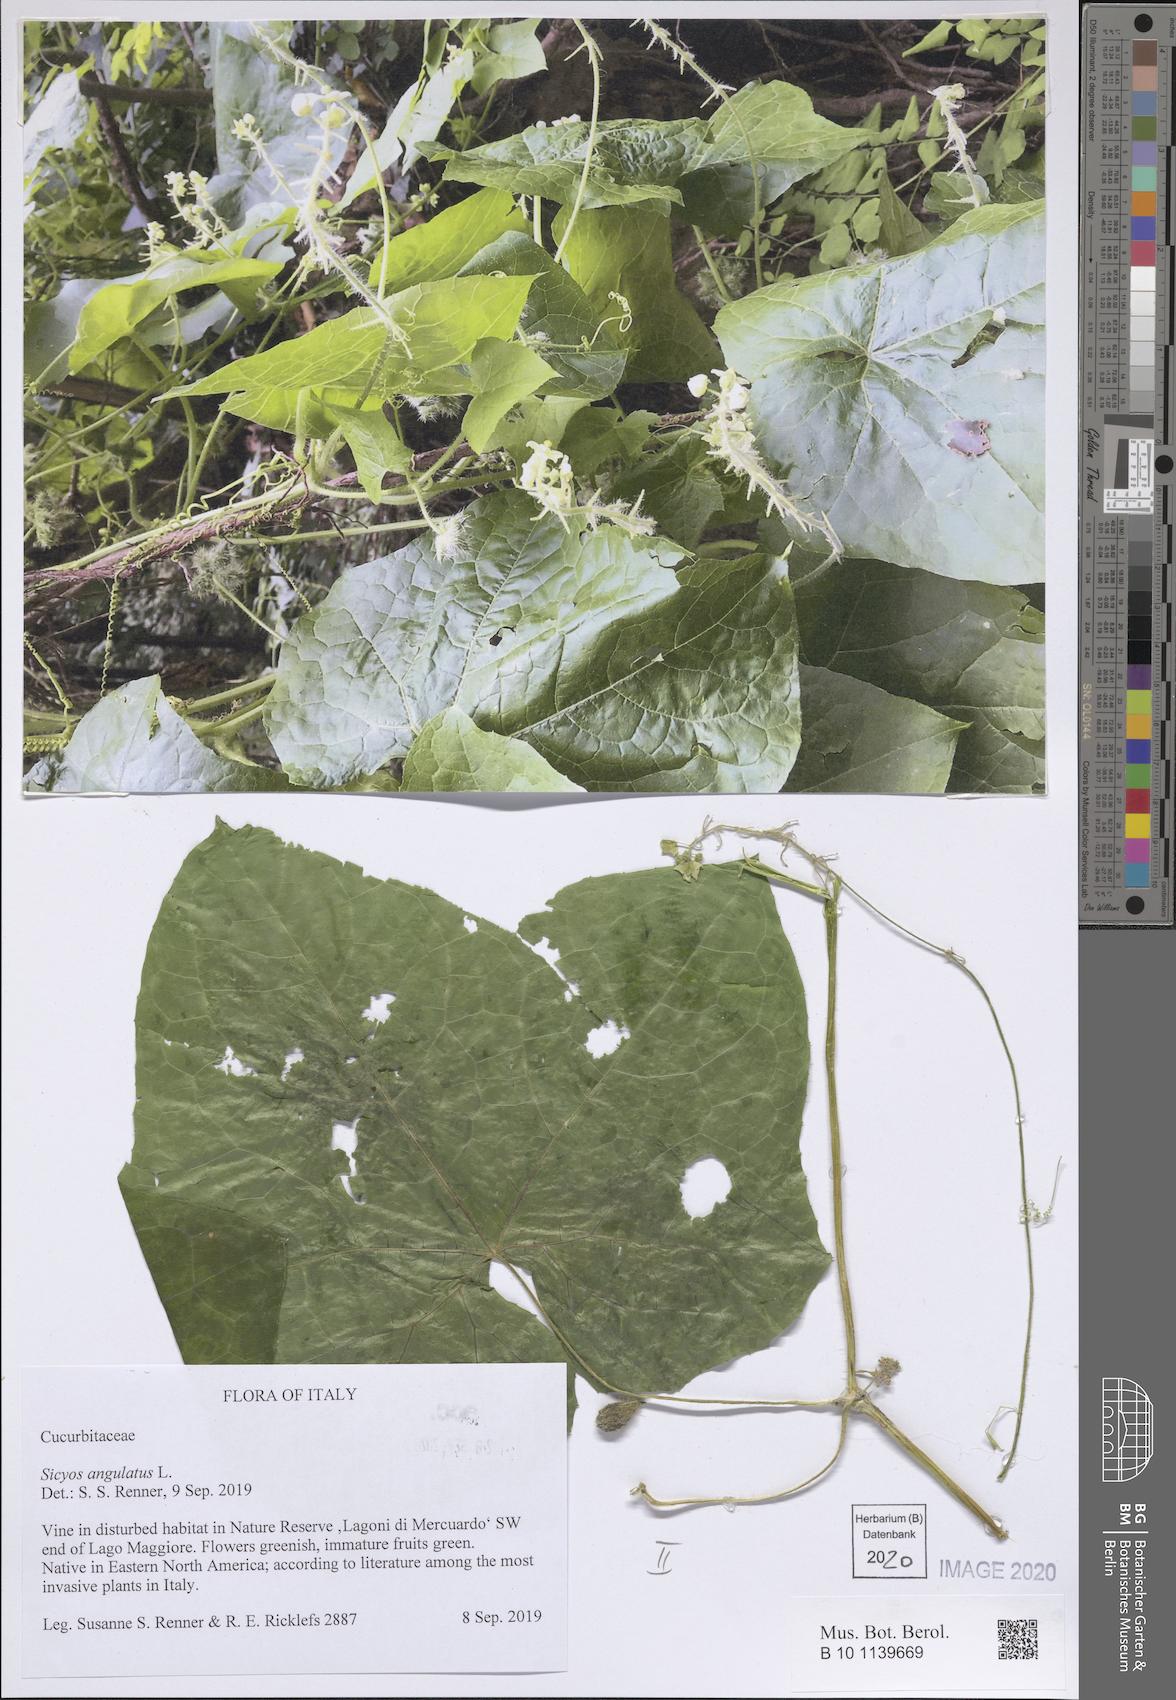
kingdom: Plantae
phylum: Tracheophyta
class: Magnoliopsida
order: Cucurbitales
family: Cucurbitaceae
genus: Sicyos
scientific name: Sicyos angulatus
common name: Angled burr cucumber
